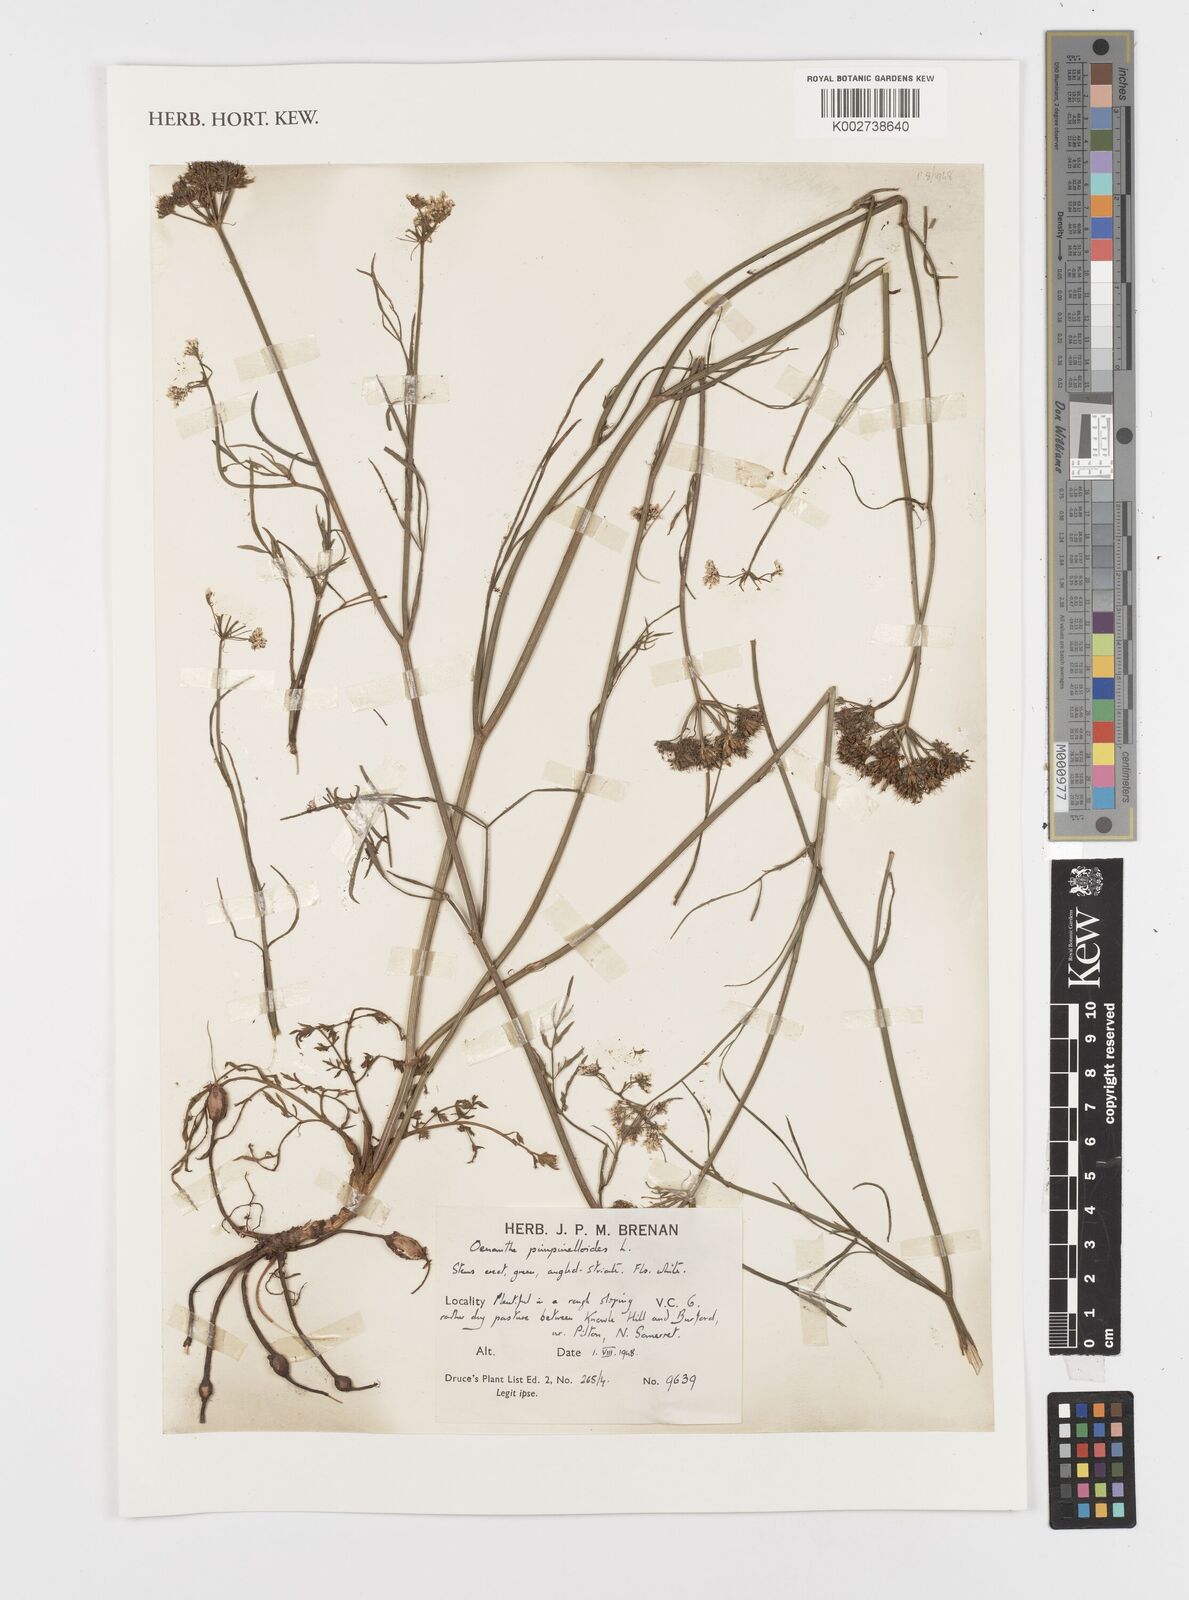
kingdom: Plantae
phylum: Tracheophyta
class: Magnoliopsida
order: Apiales
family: Apiaceae
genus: Oenanthe
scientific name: Oenanthe pimpinelloides
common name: Corky-fruited water-dropwort
